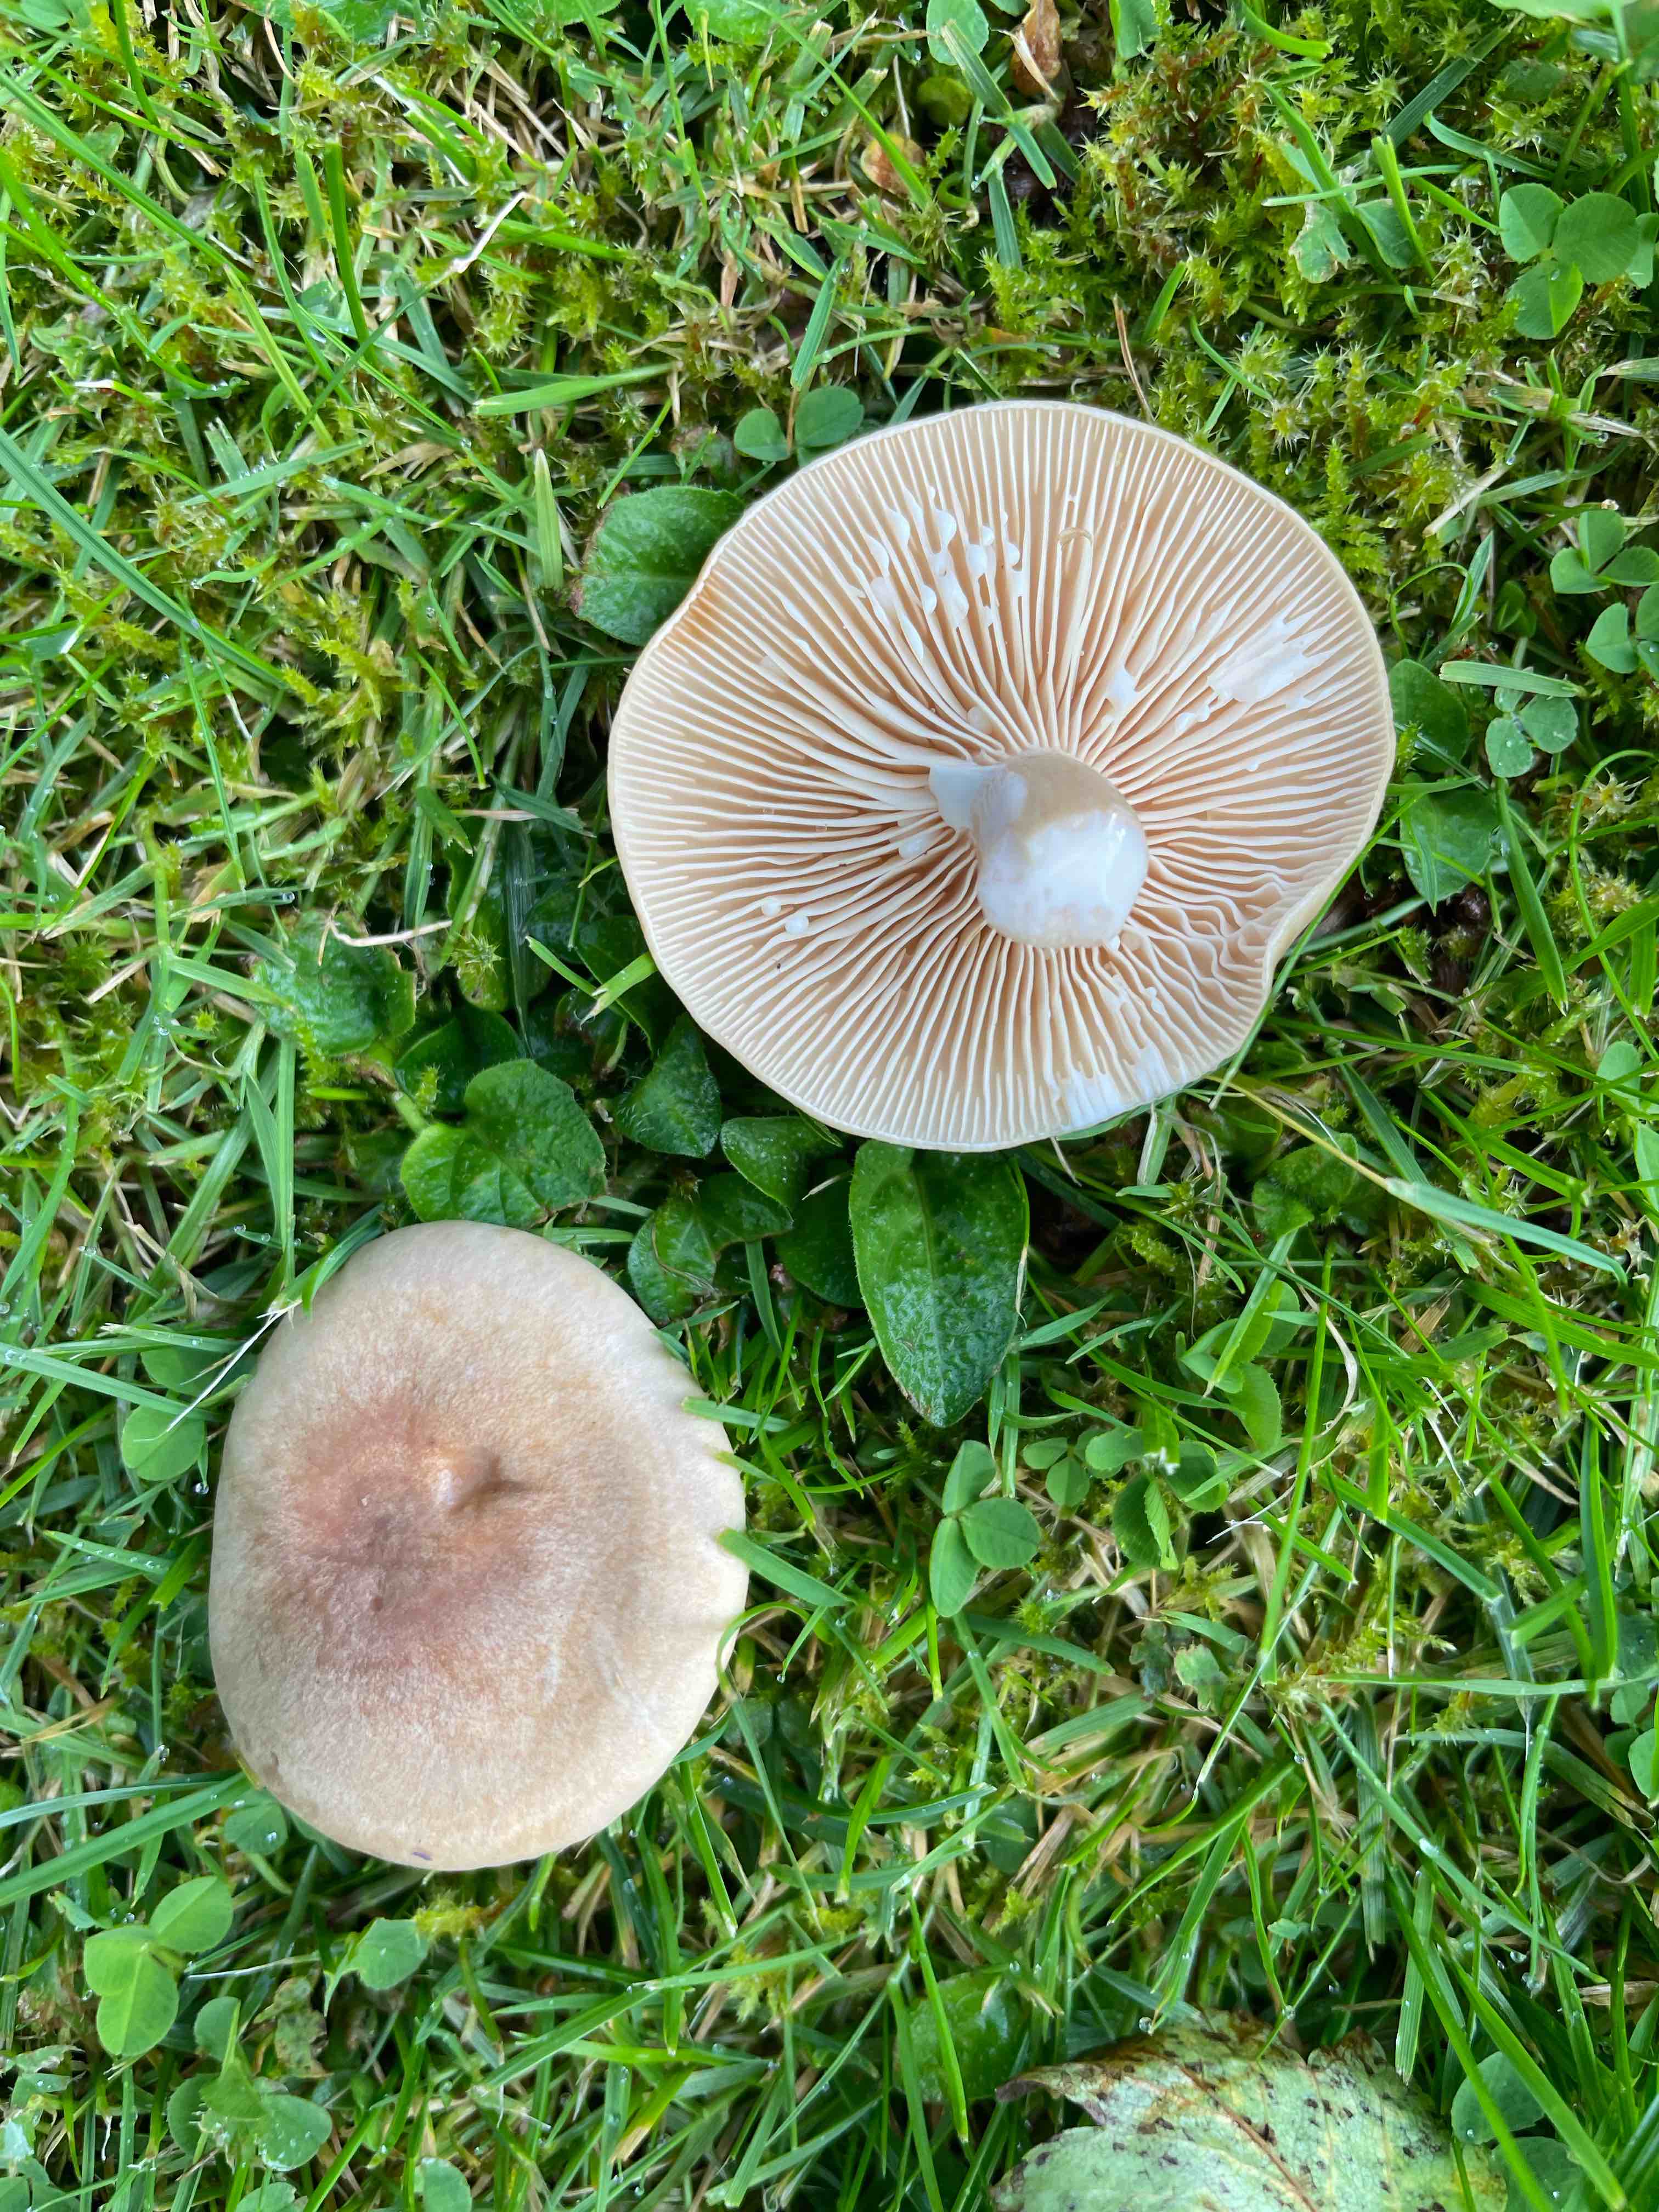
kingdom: Fungi
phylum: Basidiomycota
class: Agaricomycetes
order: Russulales
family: Russulaceae
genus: Lactarius
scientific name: Lactarius pyrogalus
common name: hassel-mælkehat
